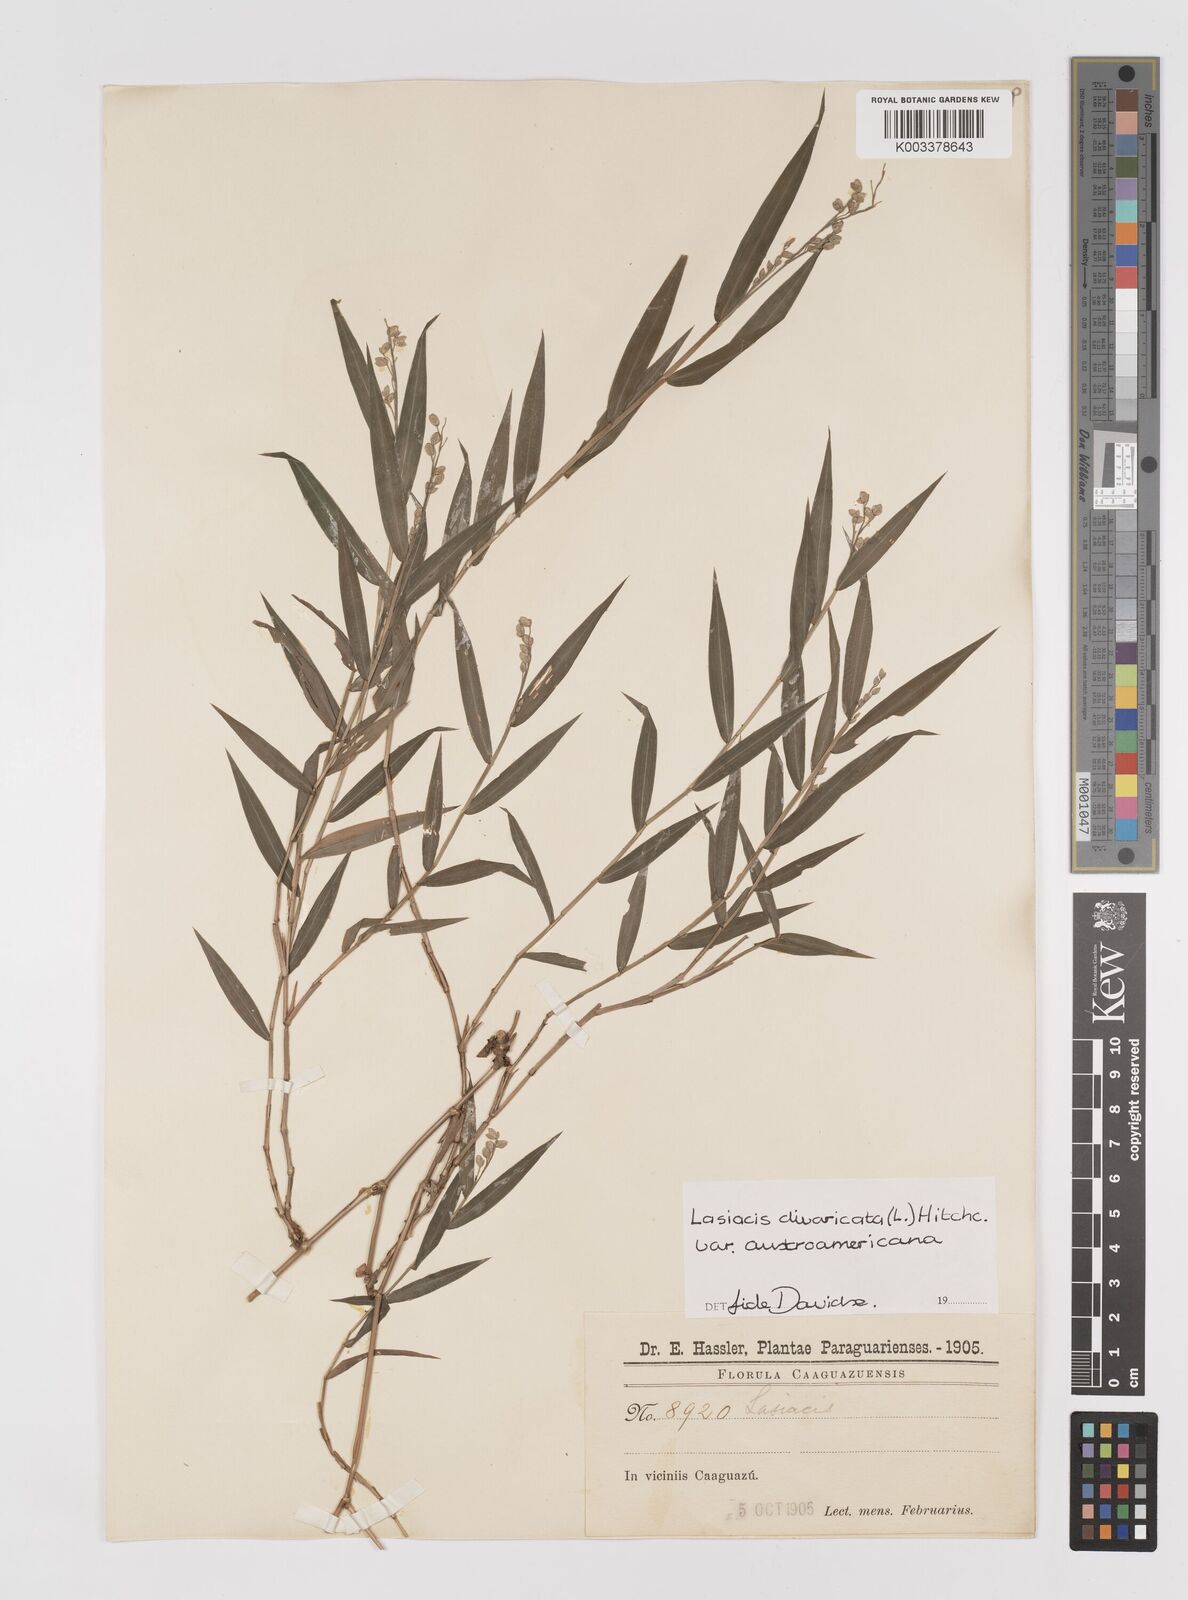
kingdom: Plantae
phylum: Tracheophyta
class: Liliopsida
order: Poales
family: Poaceae
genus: Lasiacis
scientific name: Lasiacis divaricata
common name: Smallcane
